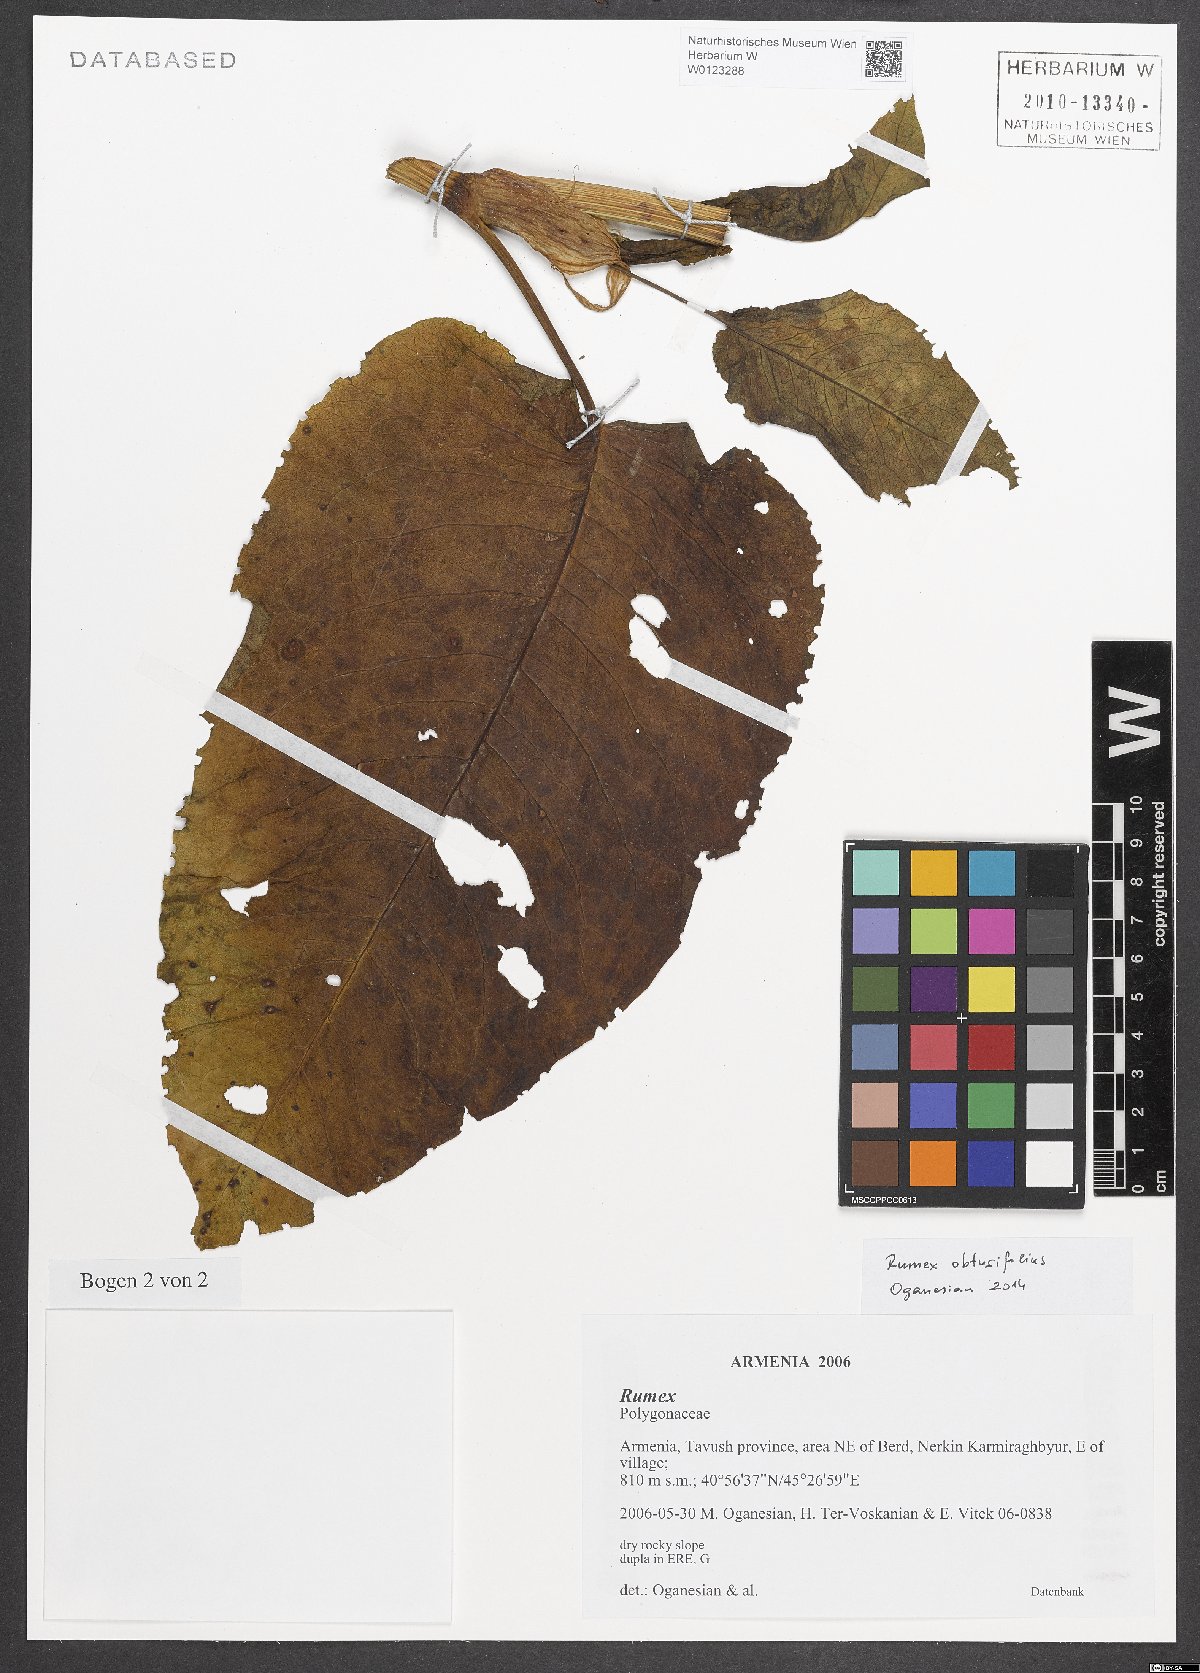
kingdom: Plantae
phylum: Tracheophyta
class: Magnoliopsida
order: Caryophyllales
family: Polygonaceae
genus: Rumex
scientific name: Rumex obtusifolius
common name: Bitter dock
